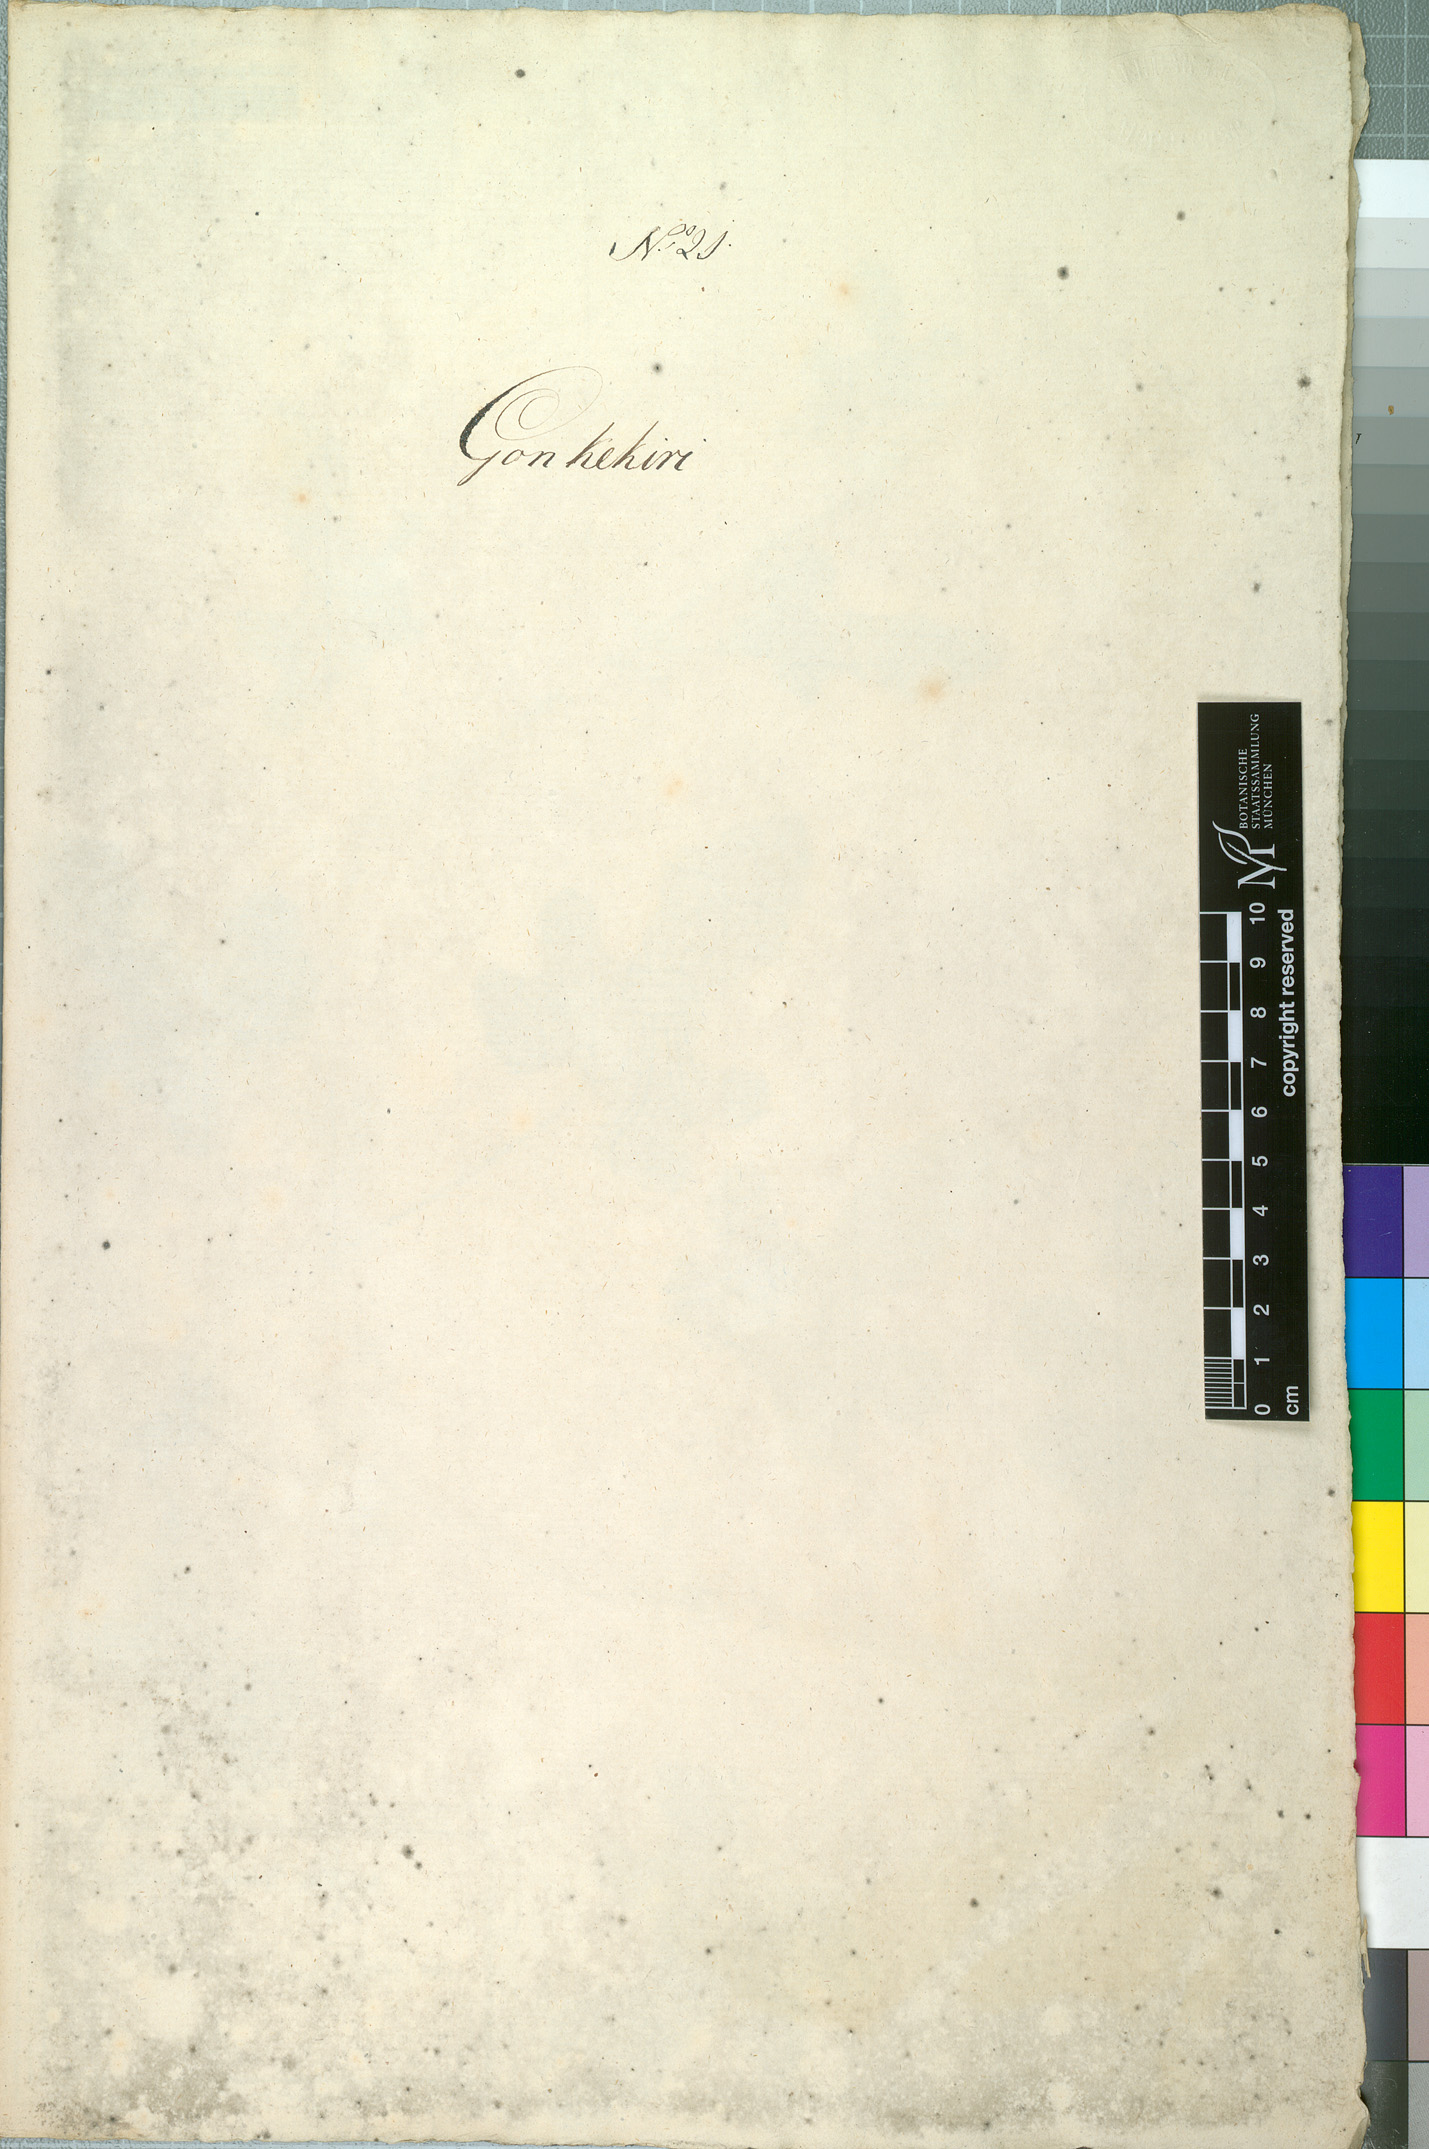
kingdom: Plantae
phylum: Tracheophyta
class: Magnoliopsida
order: Cucurbitales
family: Cucurbitaceae
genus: Cucumis
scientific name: Cucumis melo
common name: Melon
